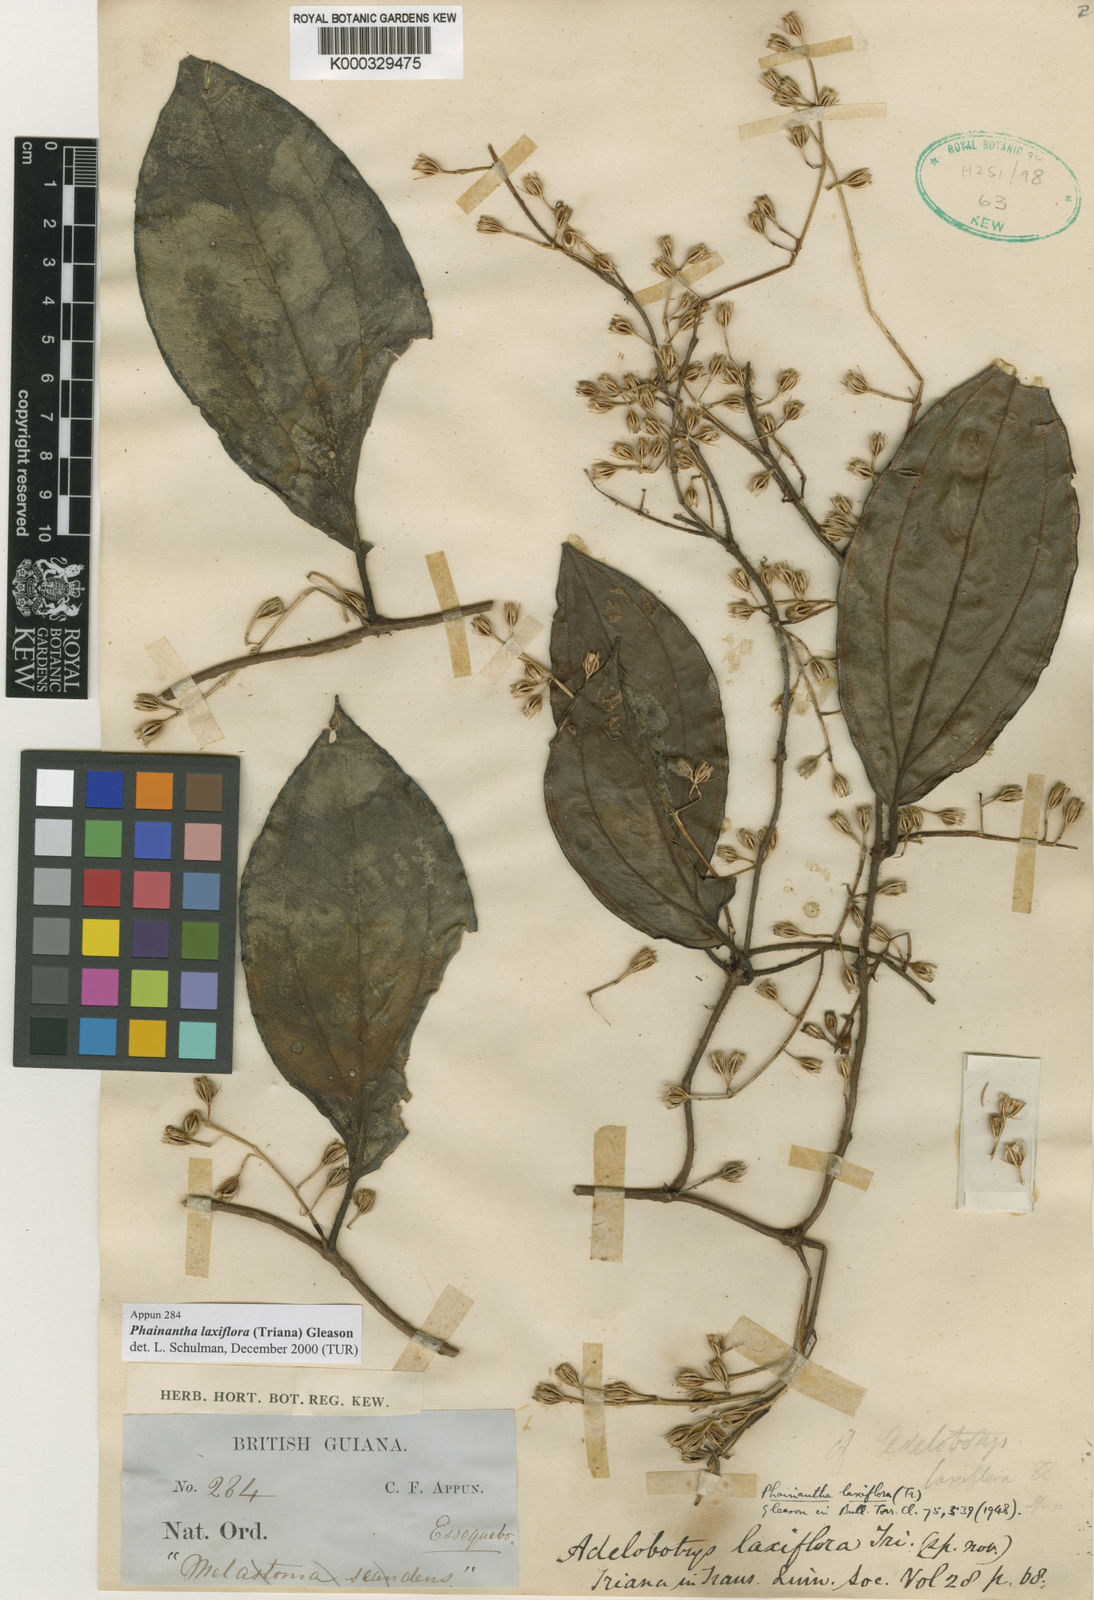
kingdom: Plantae
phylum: Tracheophyta
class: Magnoliopsida
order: Myrtales
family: Melastomataceae
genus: Phainantha
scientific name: Phainantha laxiflora
